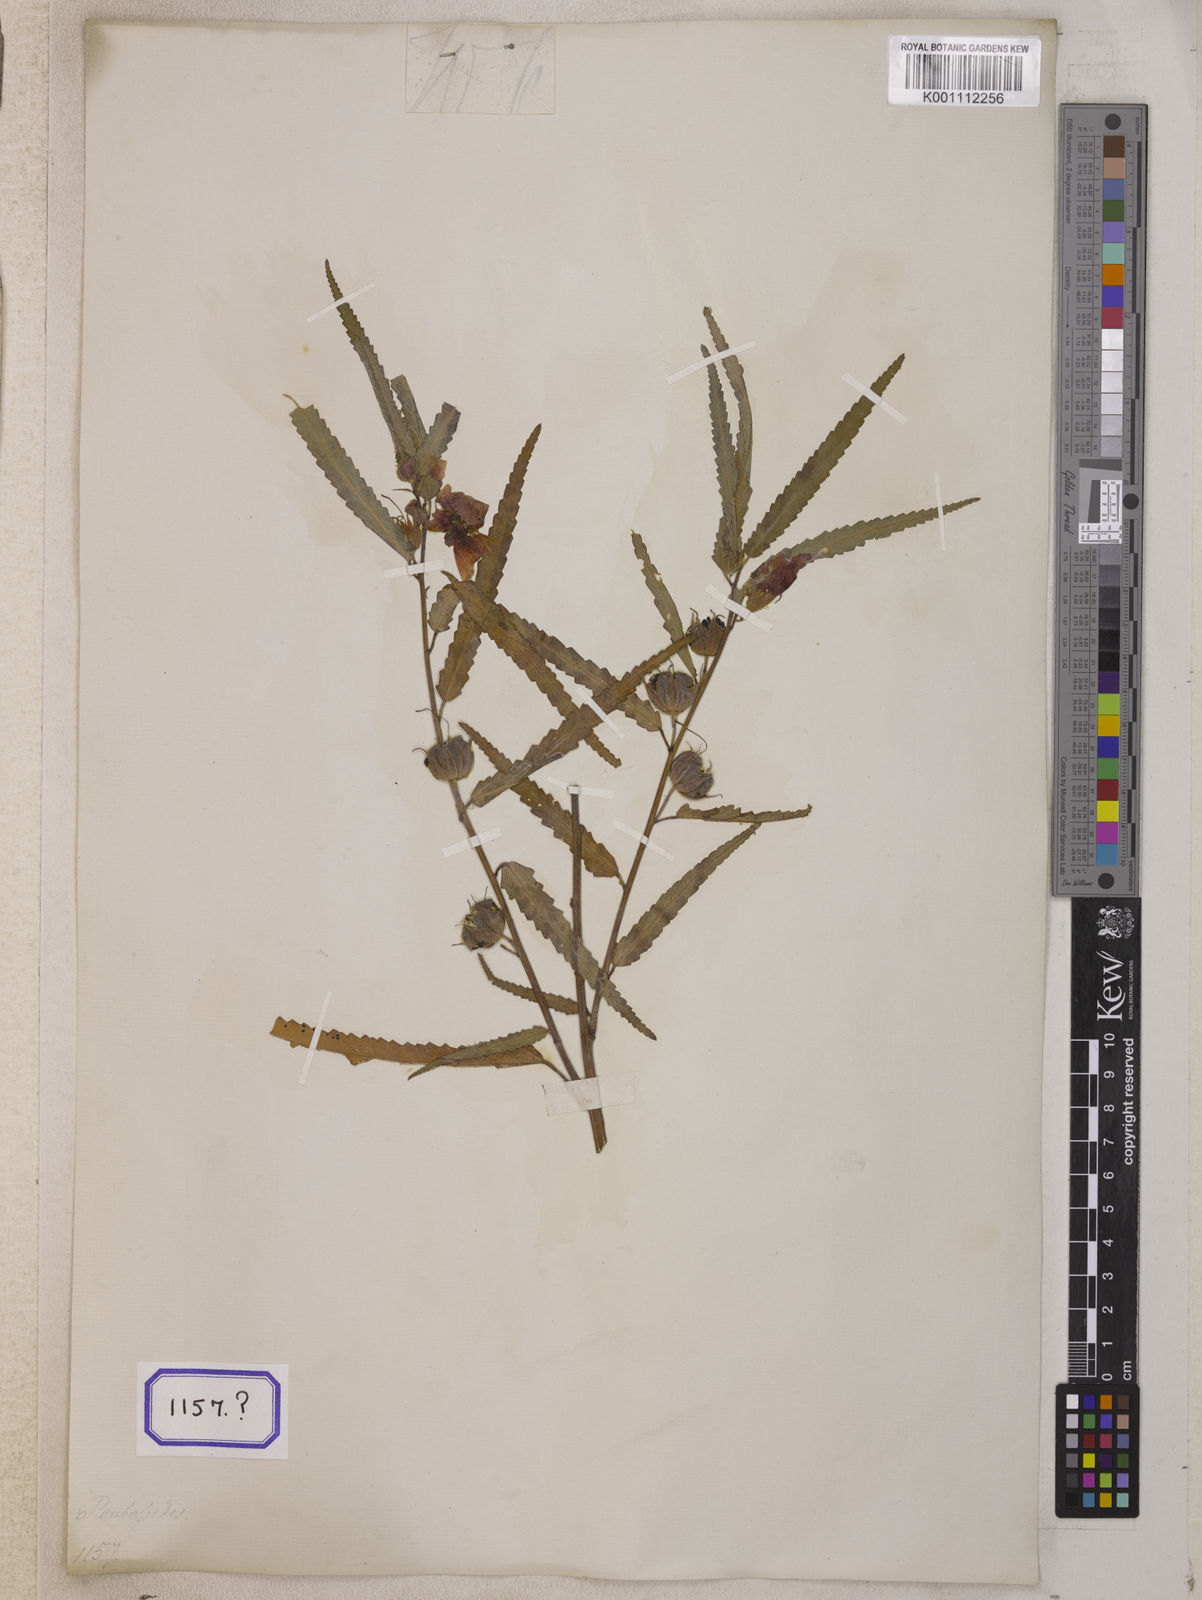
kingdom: Plantae
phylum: Tracheophyta
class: Magnoliopsida
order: Malvales
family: Malvaceae
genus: Pentapetes
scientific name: Pentapetes phoenicea
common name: Copper-cups
